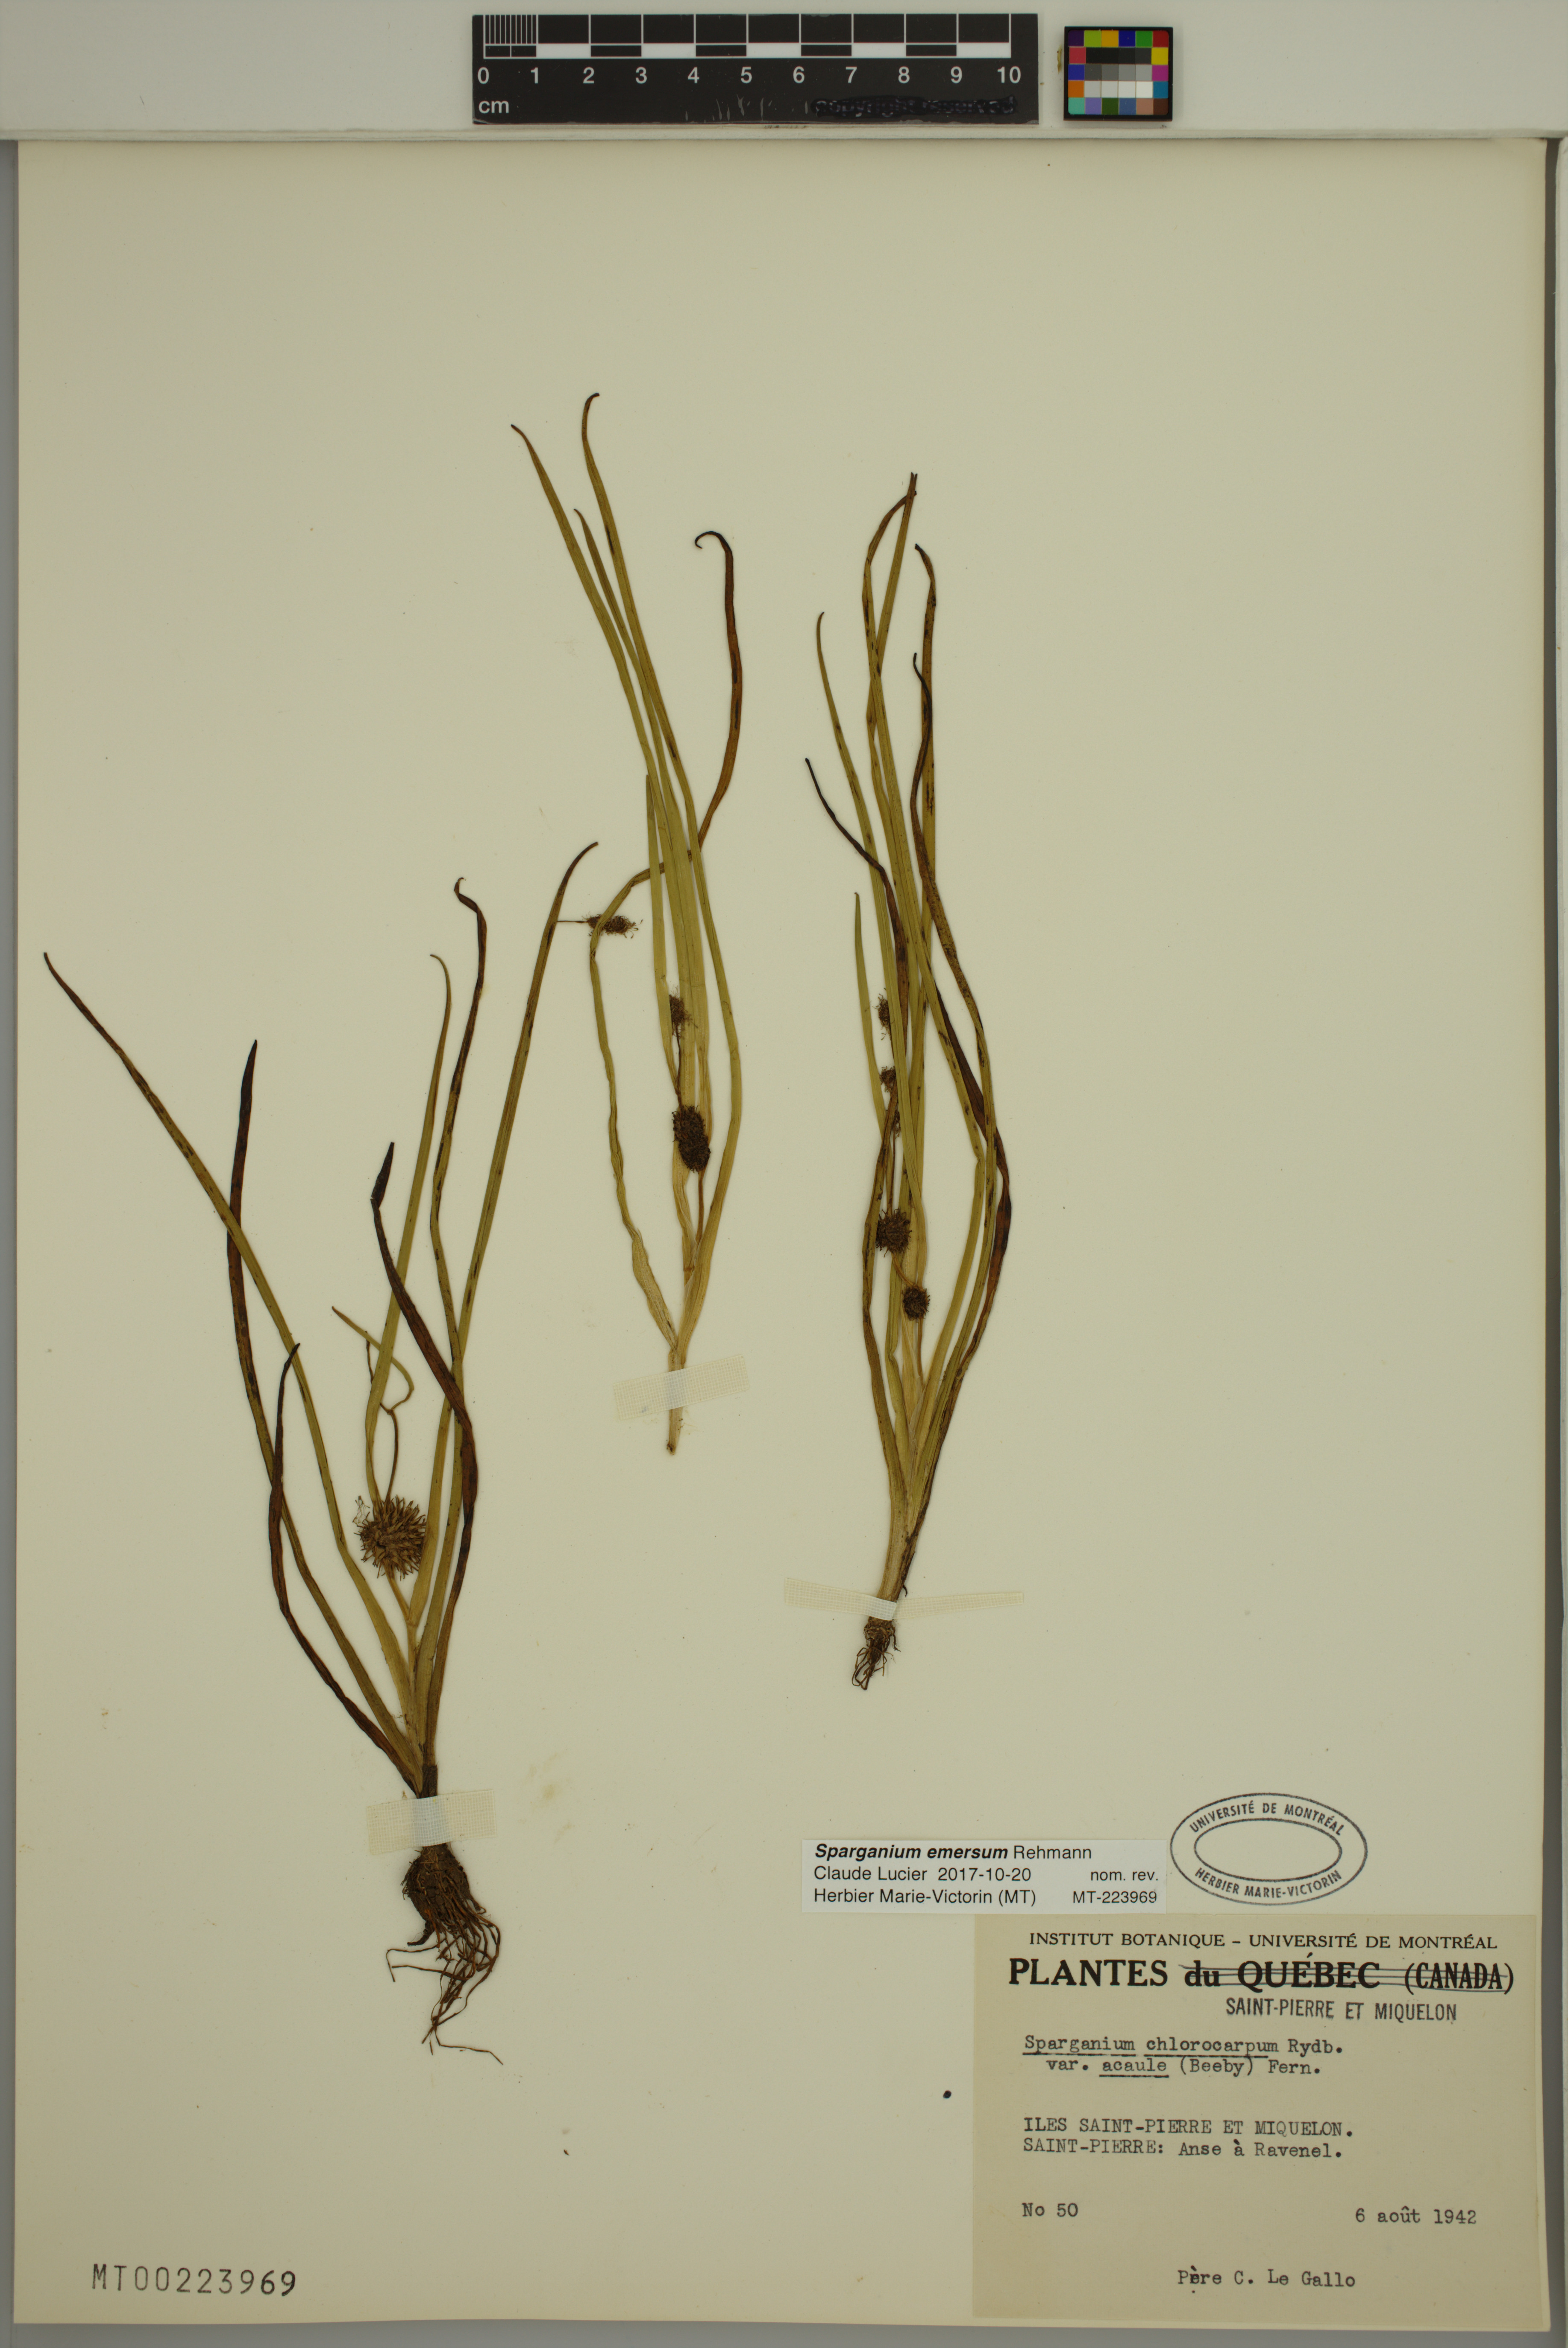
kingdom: Plantae
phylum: Tracheophyta
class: Liliopsida
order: Poales
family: Typhaceae
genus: Sparganium
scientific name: Sparganium emersum
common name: Unbranched bur-reed
